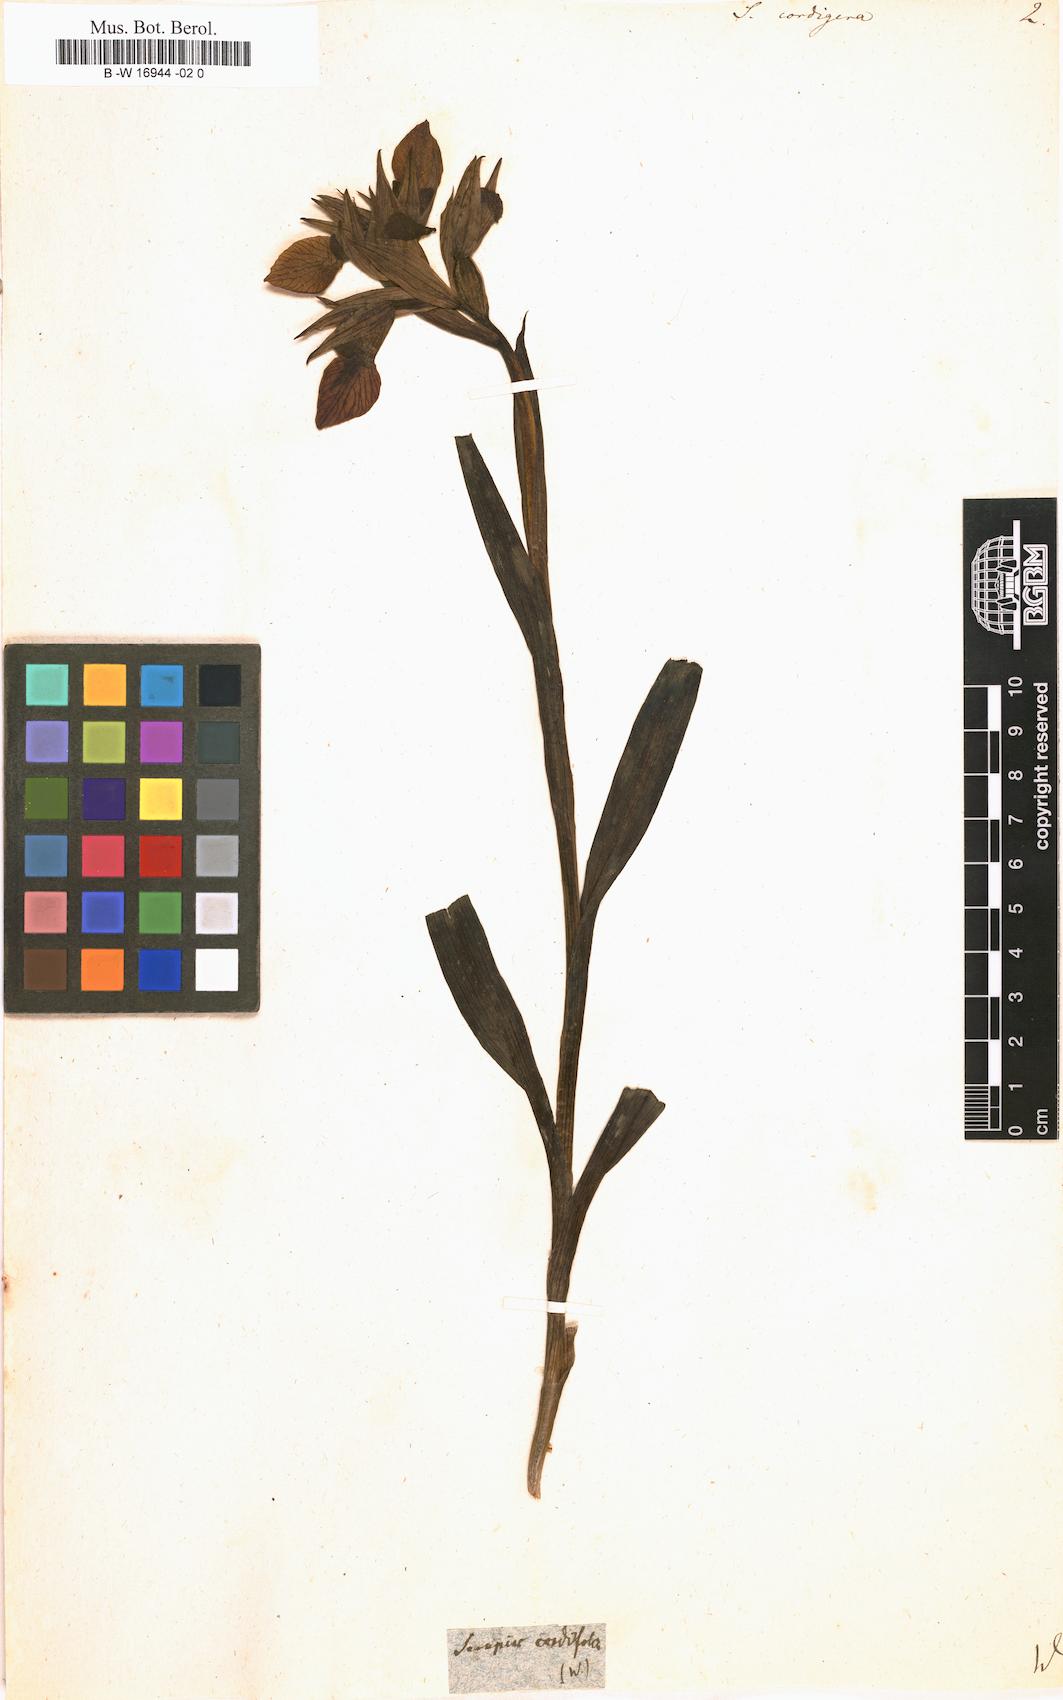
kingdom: Plantae
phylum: Tracheophyta
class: Liliopsida
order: Asparagales
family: Orchidaceae
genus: Serapias
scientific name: Serapias cordigera
